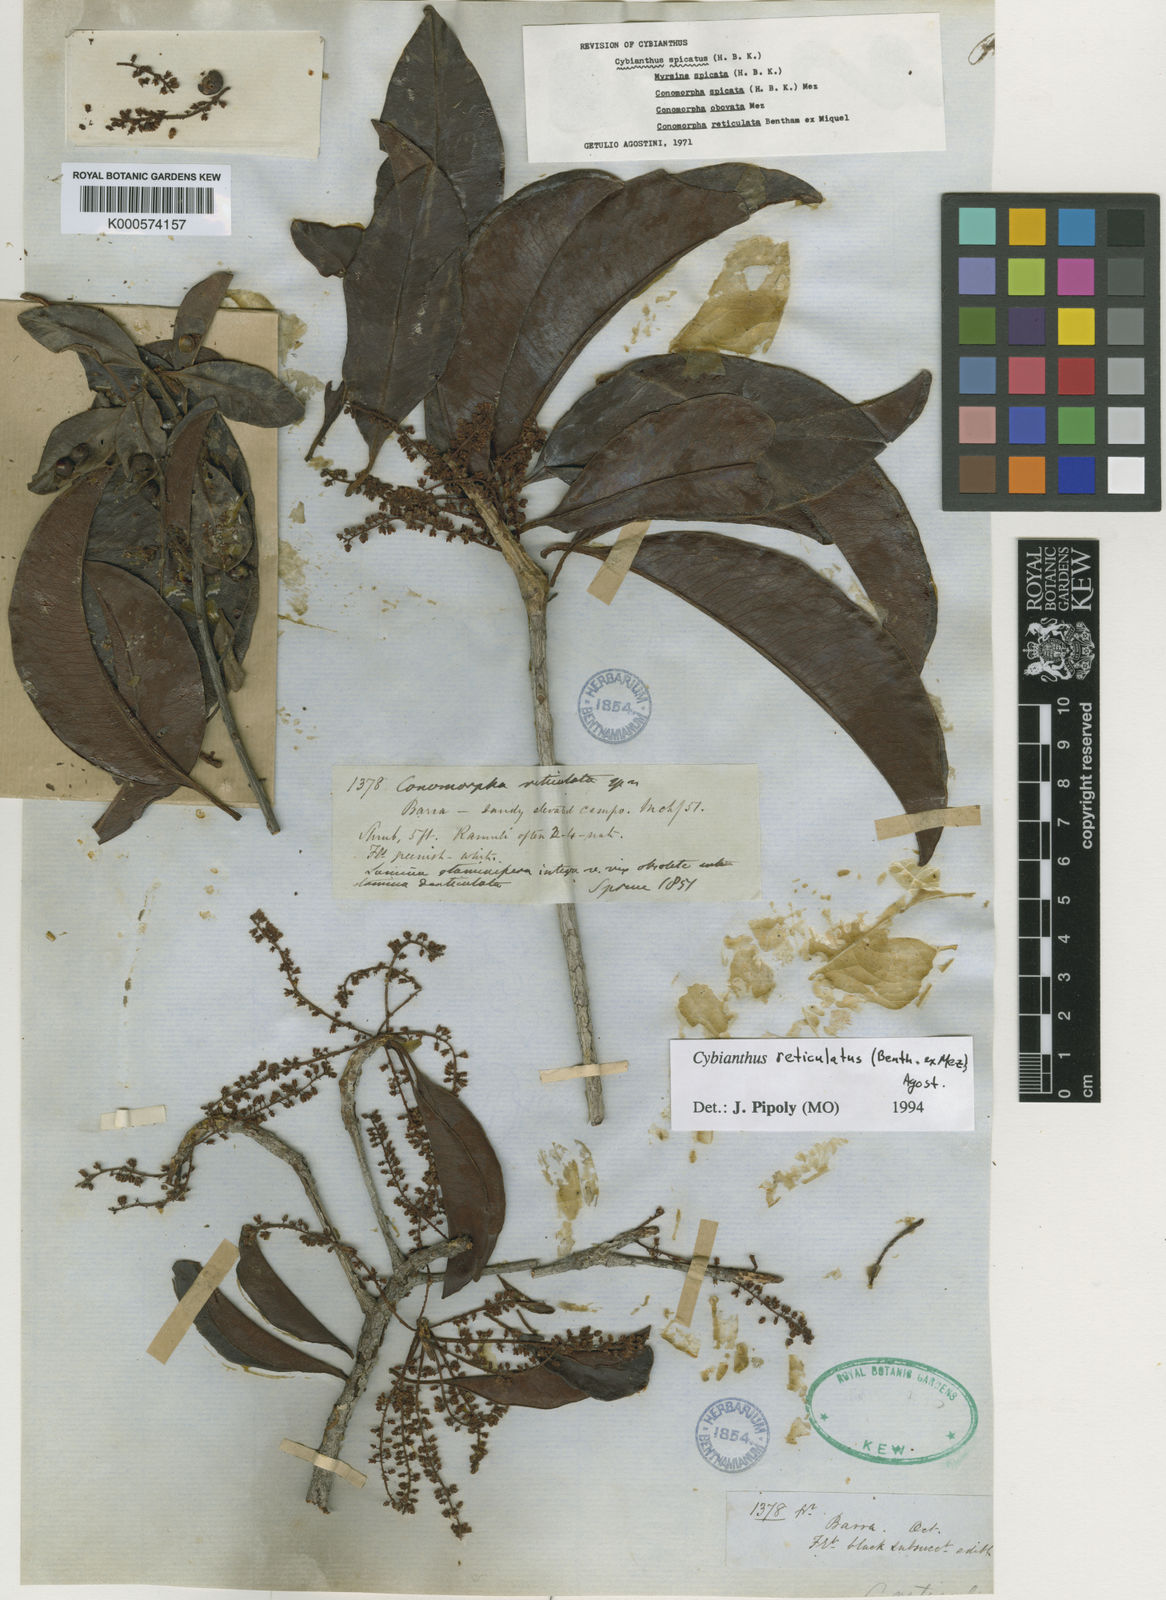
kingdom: Plantae
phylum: Tracheophyta
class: Magnoliopsida
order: Ericales
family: Primulaceae
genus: Cybianthus
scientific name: Cybianthus reticulatus
